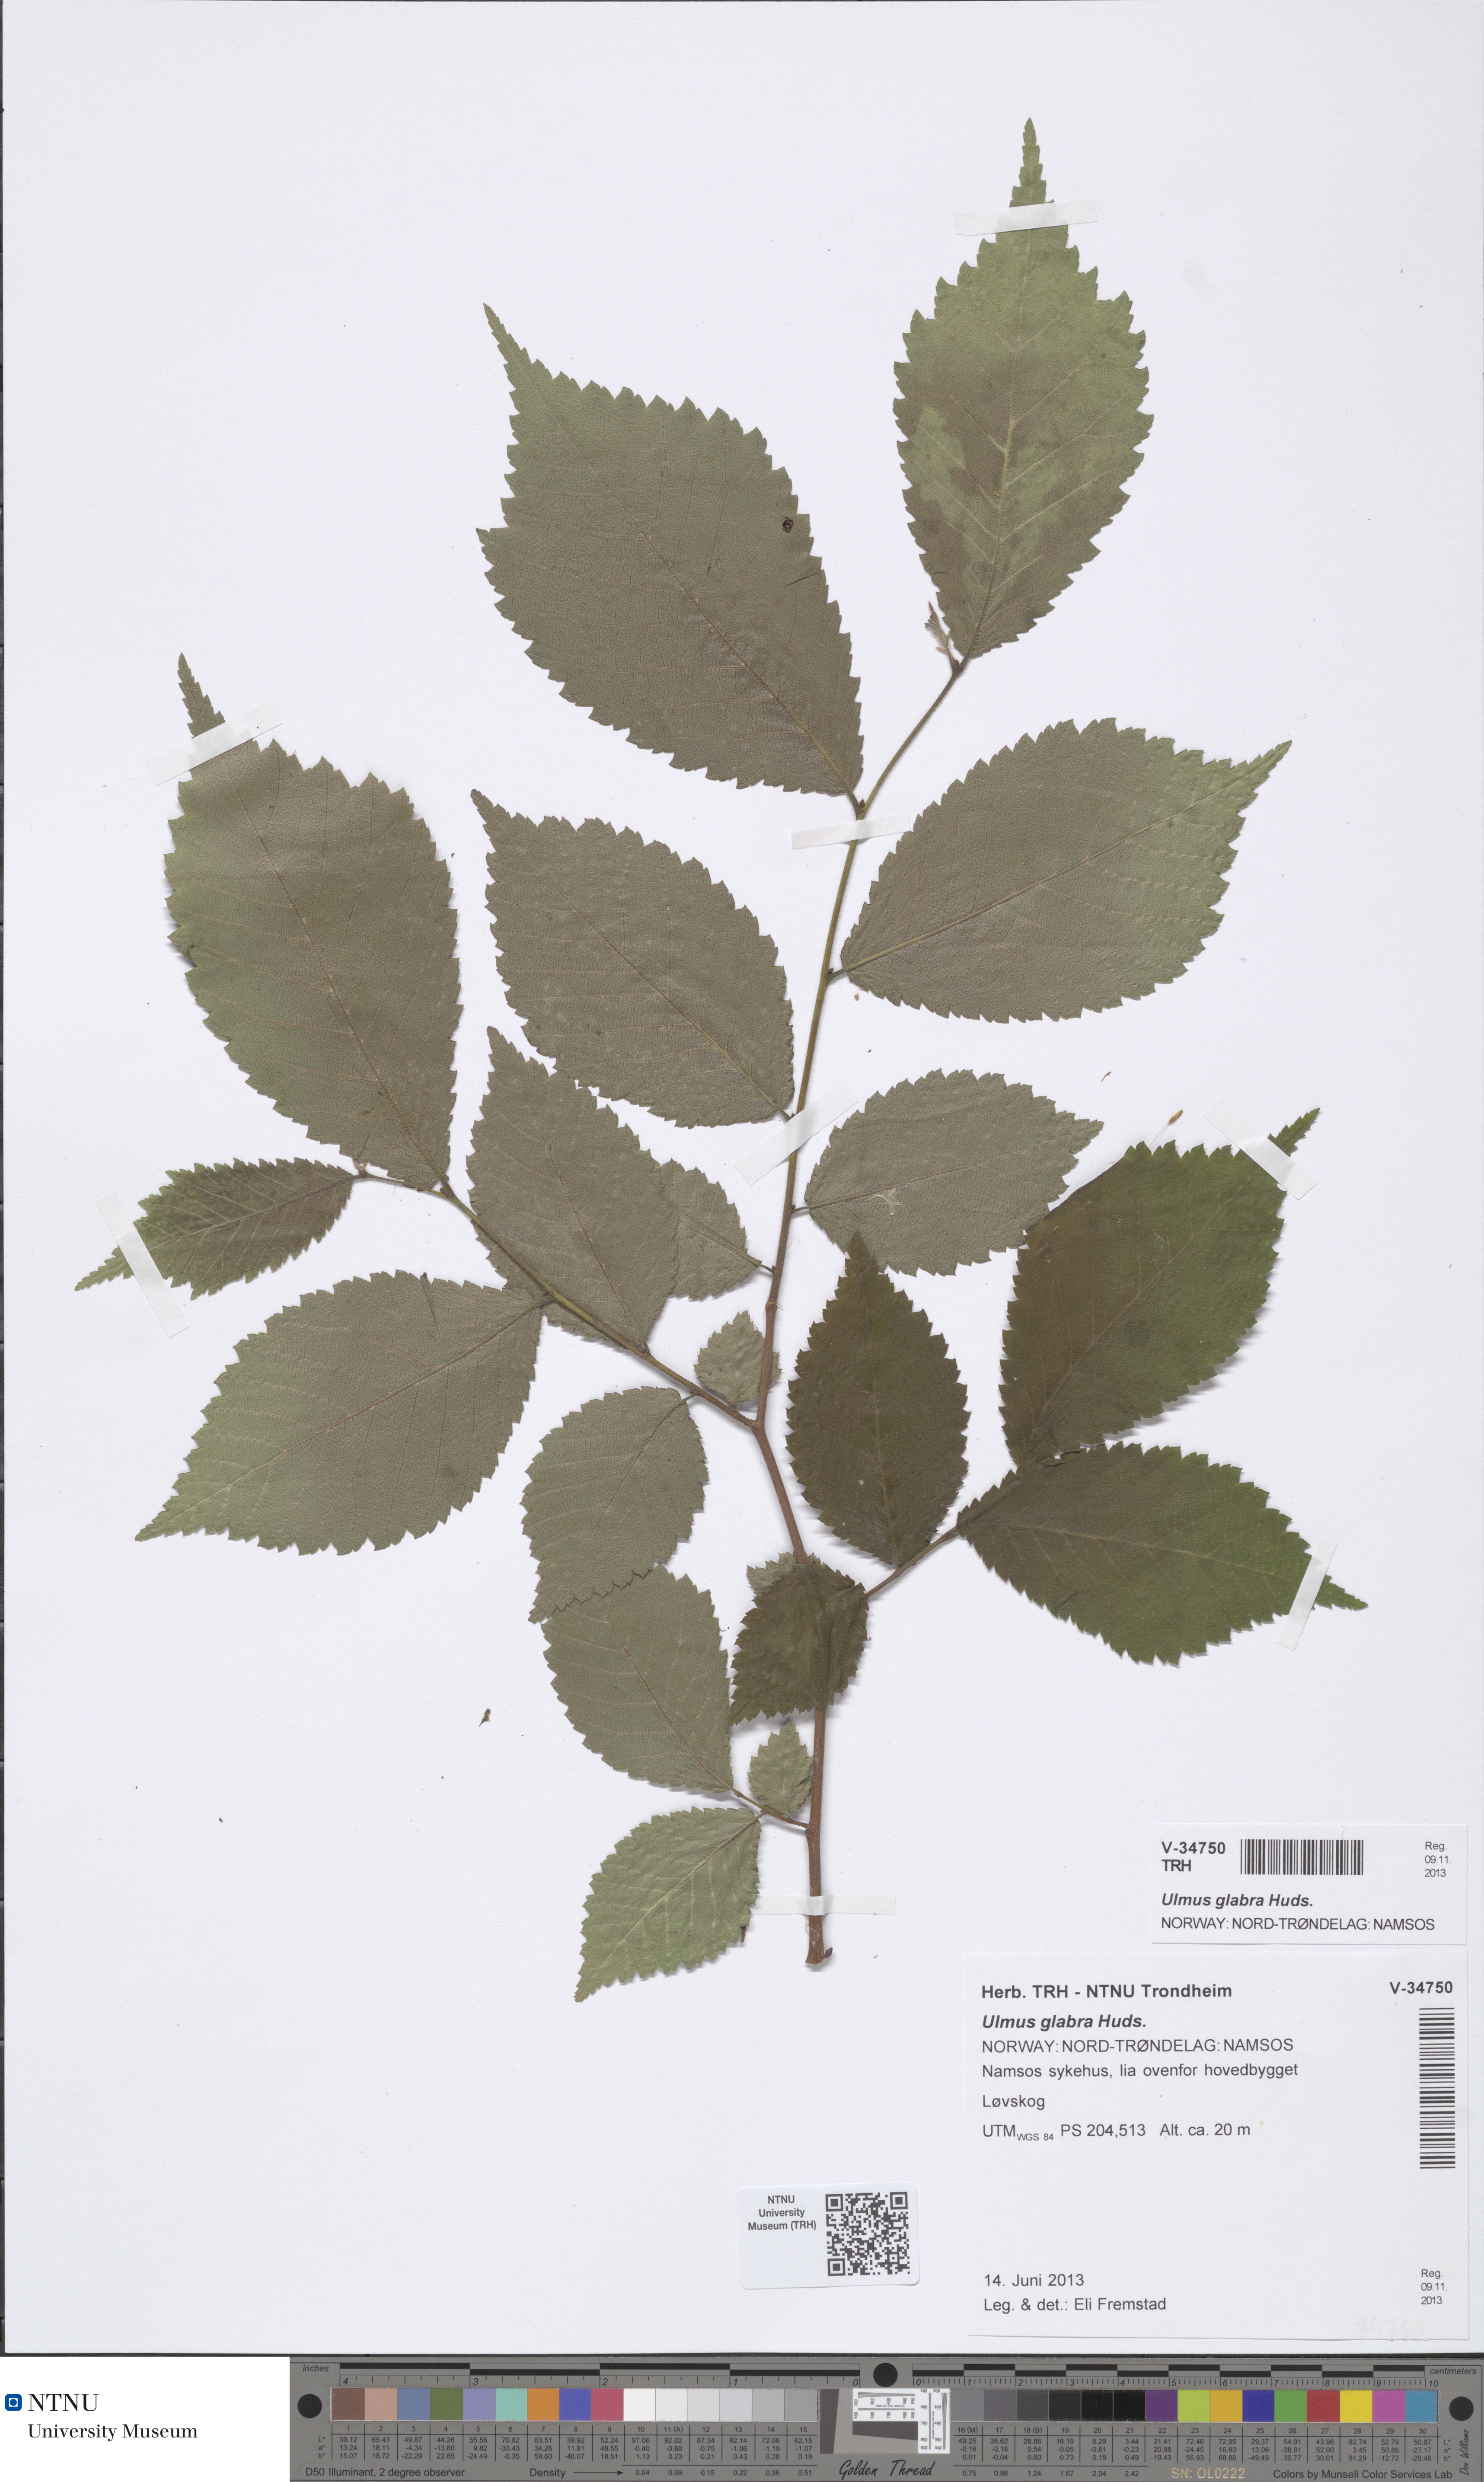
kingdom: Plantae
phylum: Tracheophyta
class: Magnoliopsida
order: Rosales
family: Ulmaceae
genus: Ulmus
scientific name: Ulmus glabra
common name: Wych elm
